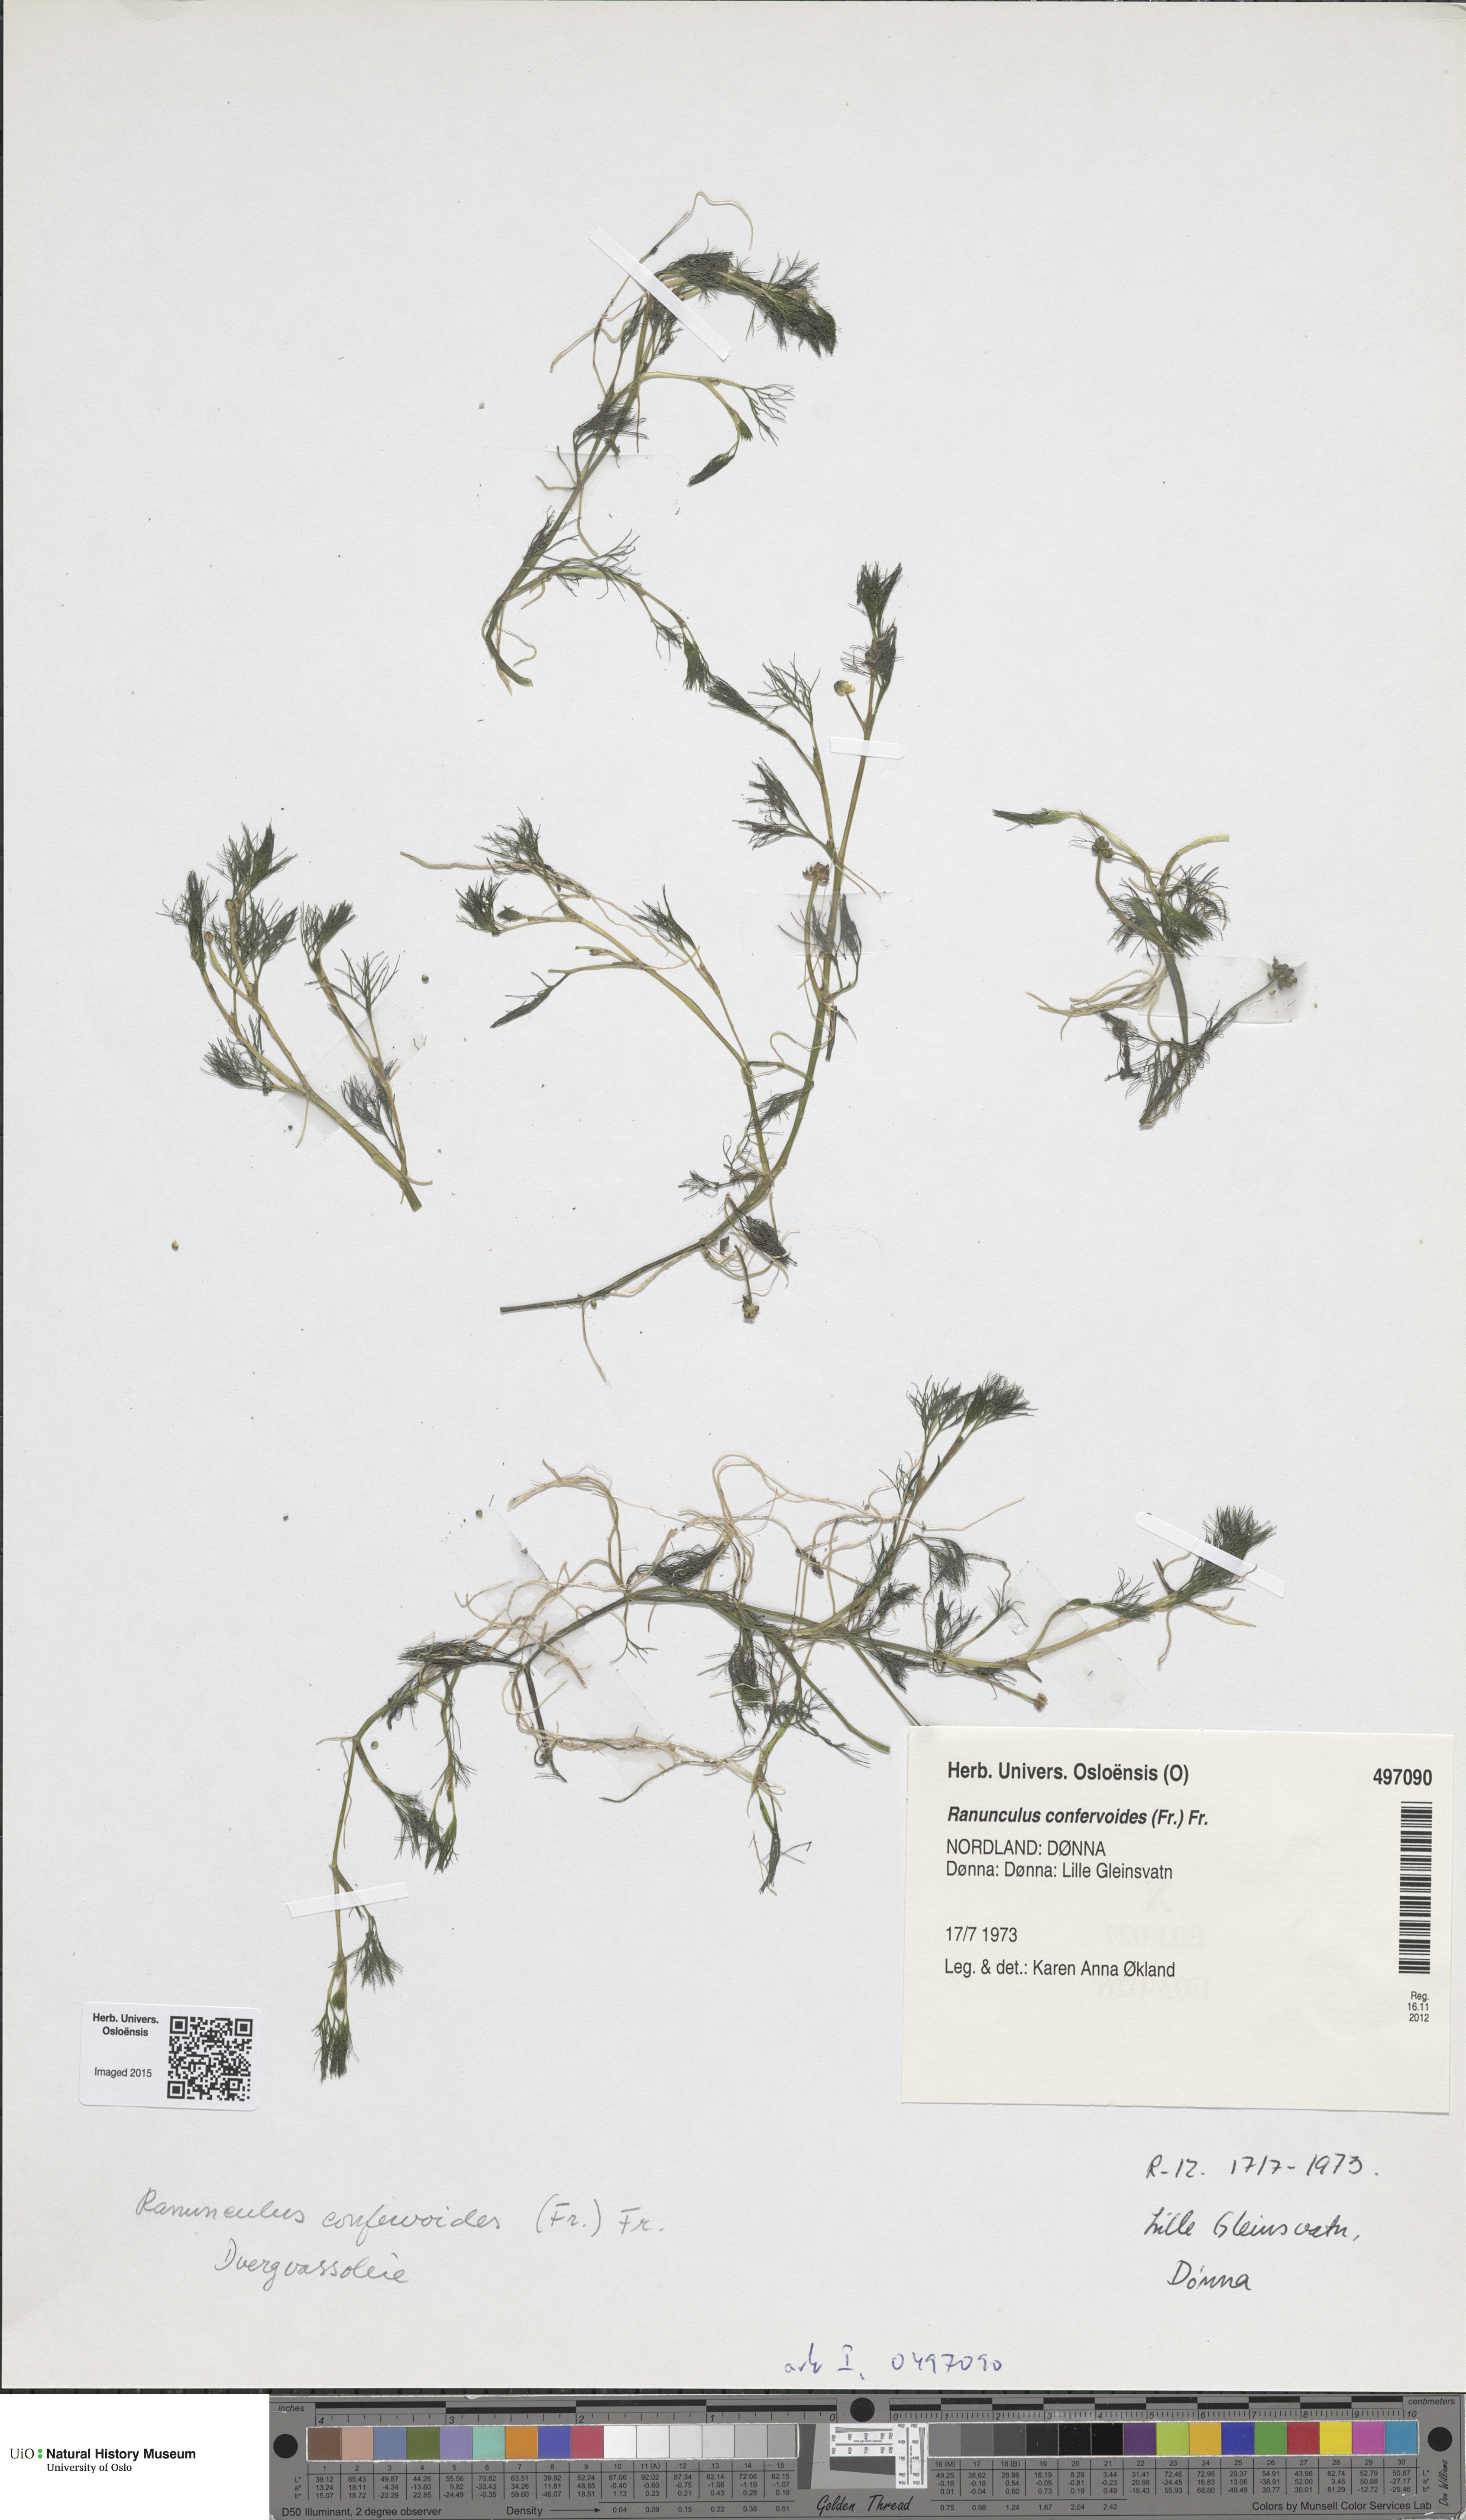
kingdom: Plantae
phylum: Tracheophyta
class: Magnoliopsida
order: Ranunculales
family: Ranunculaceae
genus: Ranunculus
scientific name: Ranunculus confervoides
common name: Delicate buttercup
